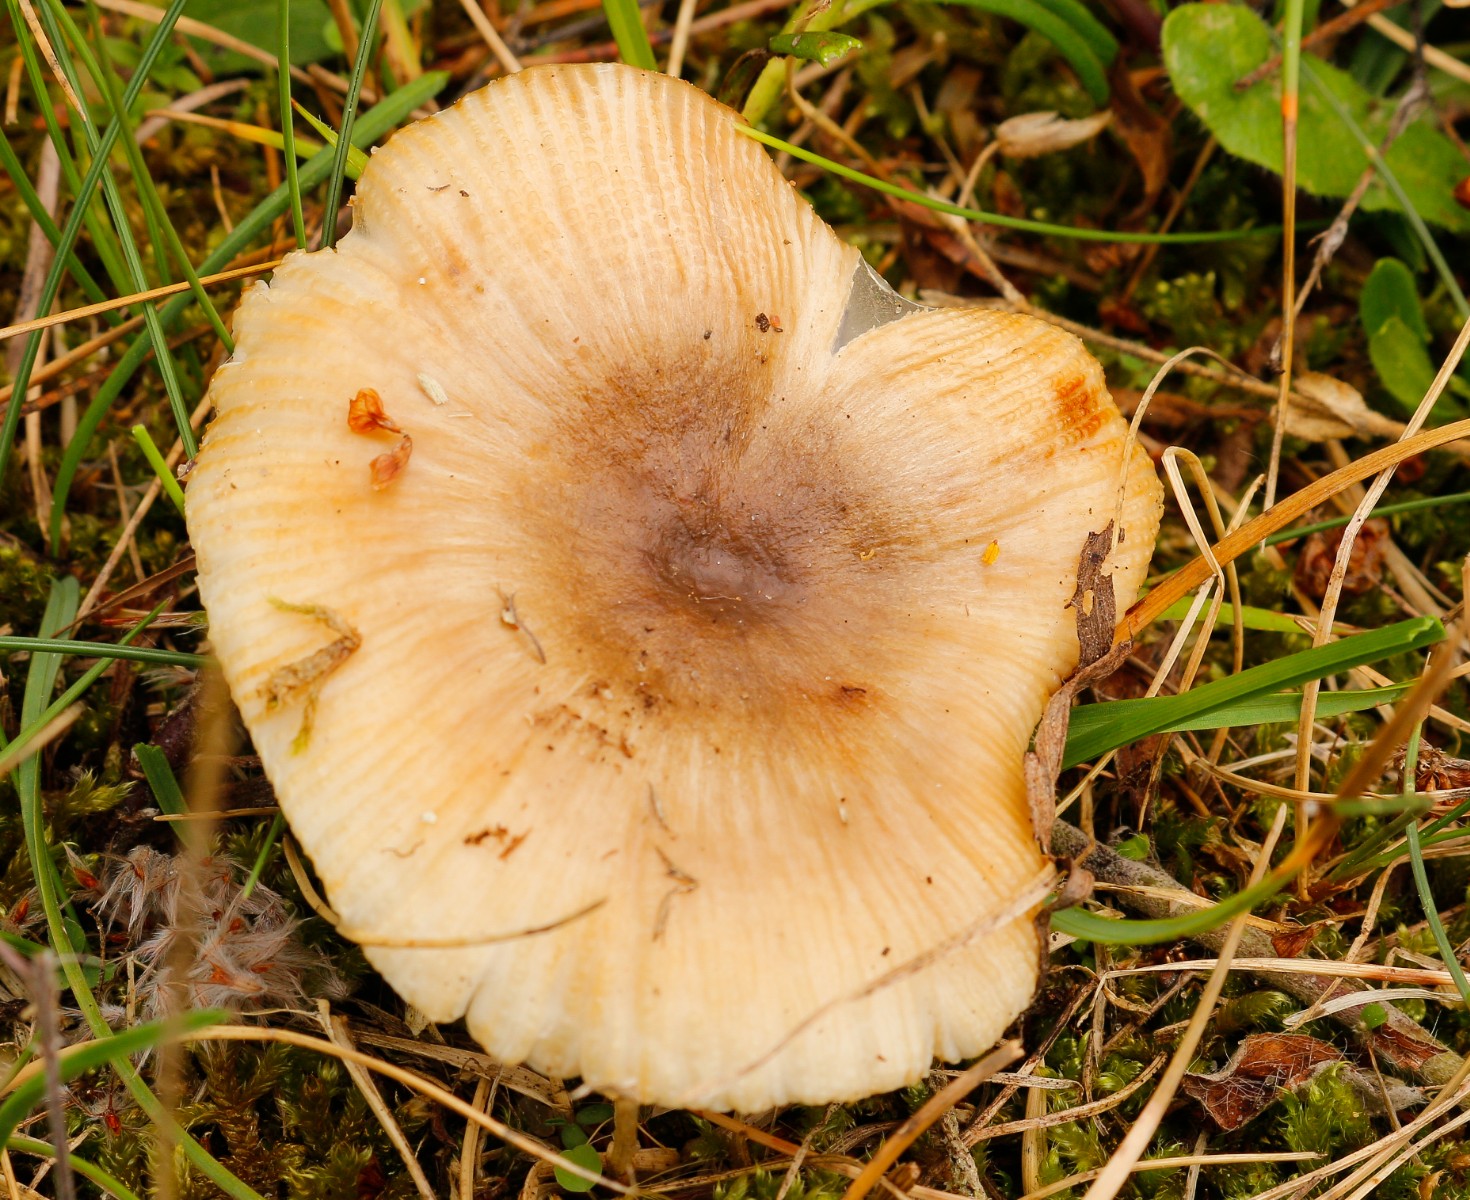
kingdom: Fungi
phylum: Basidiomycota
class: Agaricomycetes
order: Russulales
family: Russulaceae
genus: Russula
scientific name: Russula recondita
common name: mild kam-skørhat
